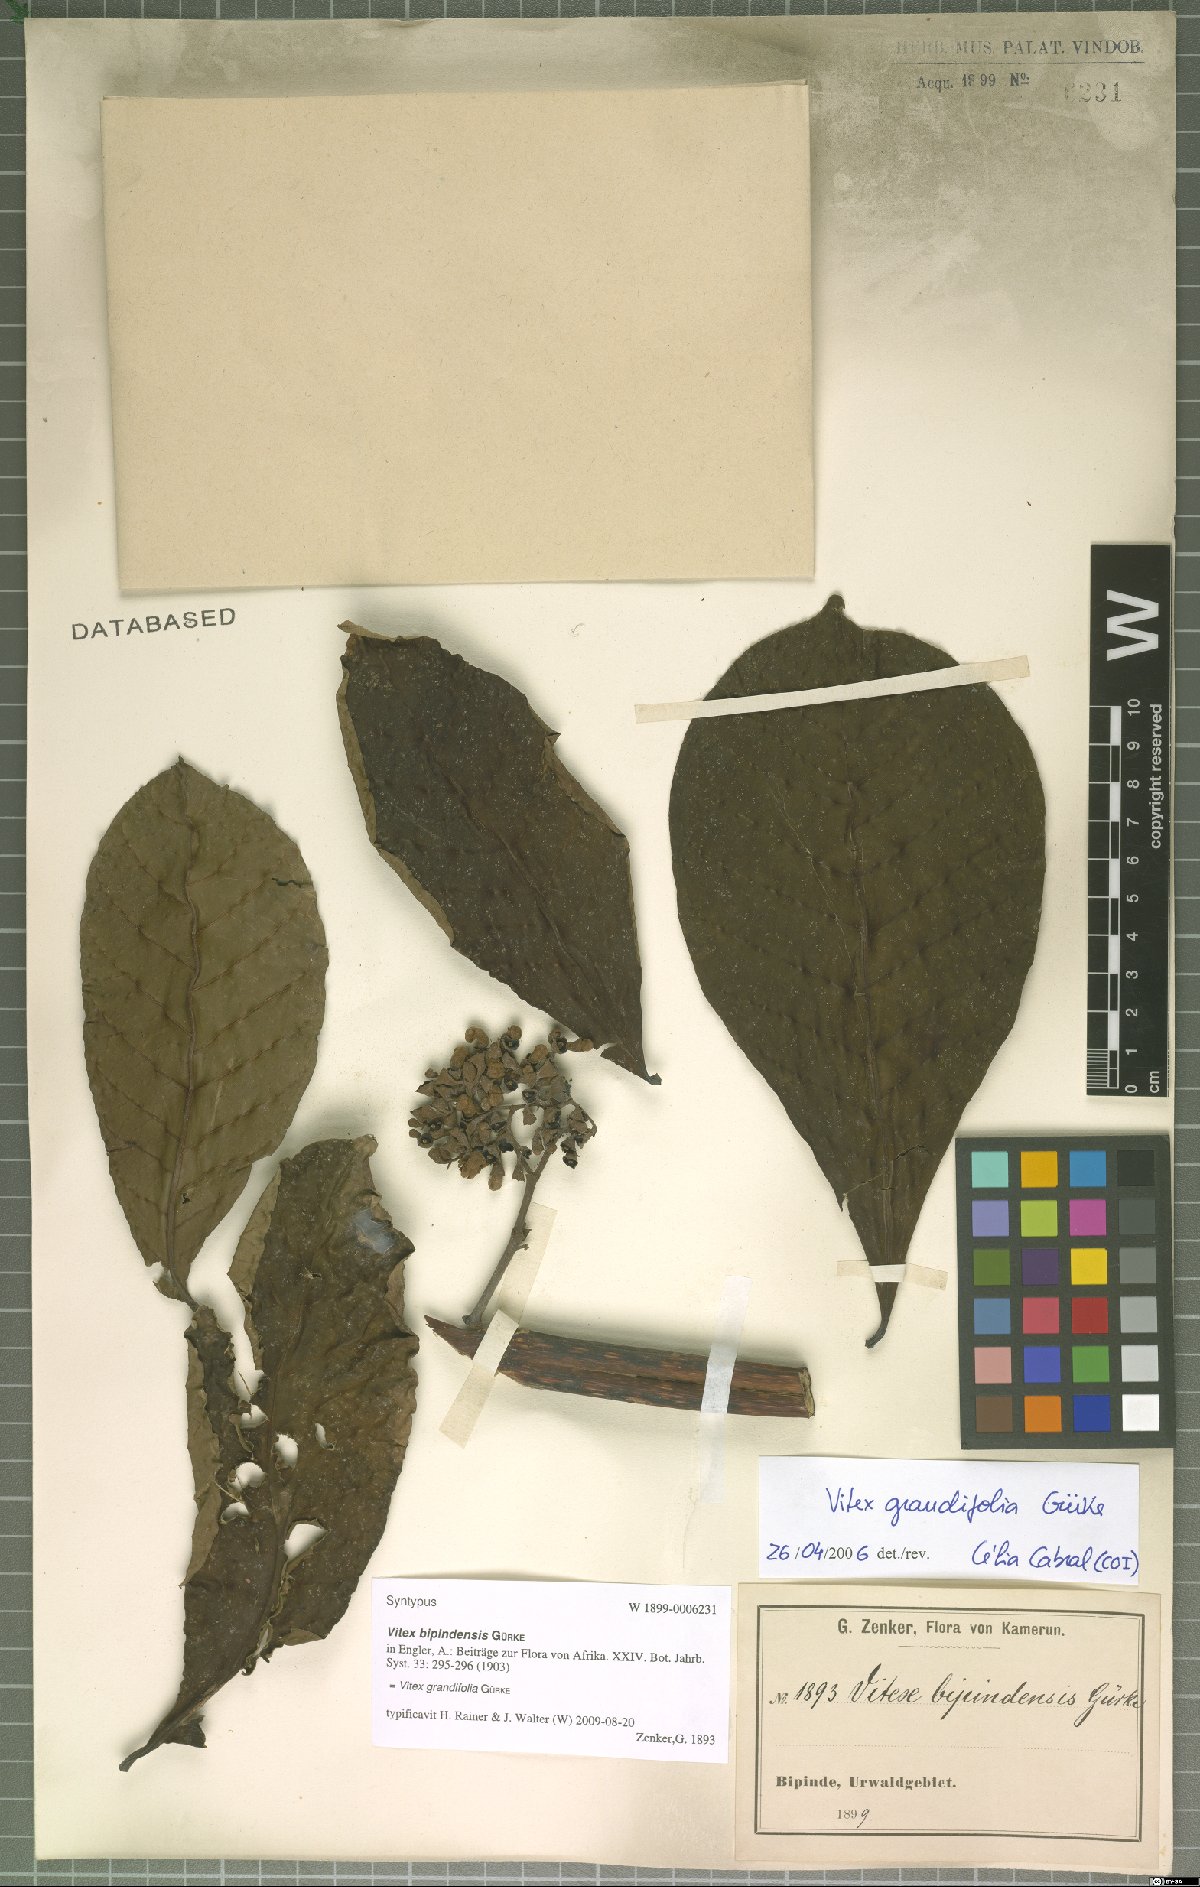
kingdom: Plantae
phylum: Tracheophyta
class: Magnoliopsida
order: Lamiales
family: Lamiaceae
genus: Vitex
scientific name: Vitex grandifolia
